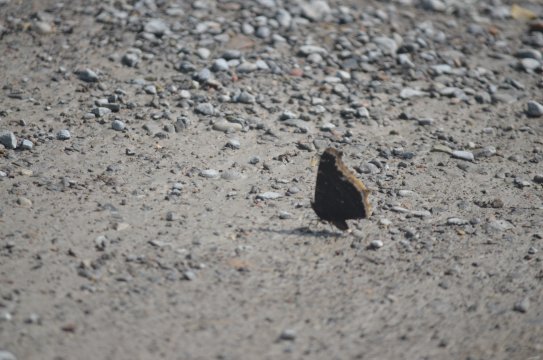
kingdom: Animalia
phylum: Arthropoda
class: Insecta
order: Lepidoptera
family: Nymphalidae
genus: Nymphalis
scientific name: Nymphalis antiopa
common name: Mourning Cloak
